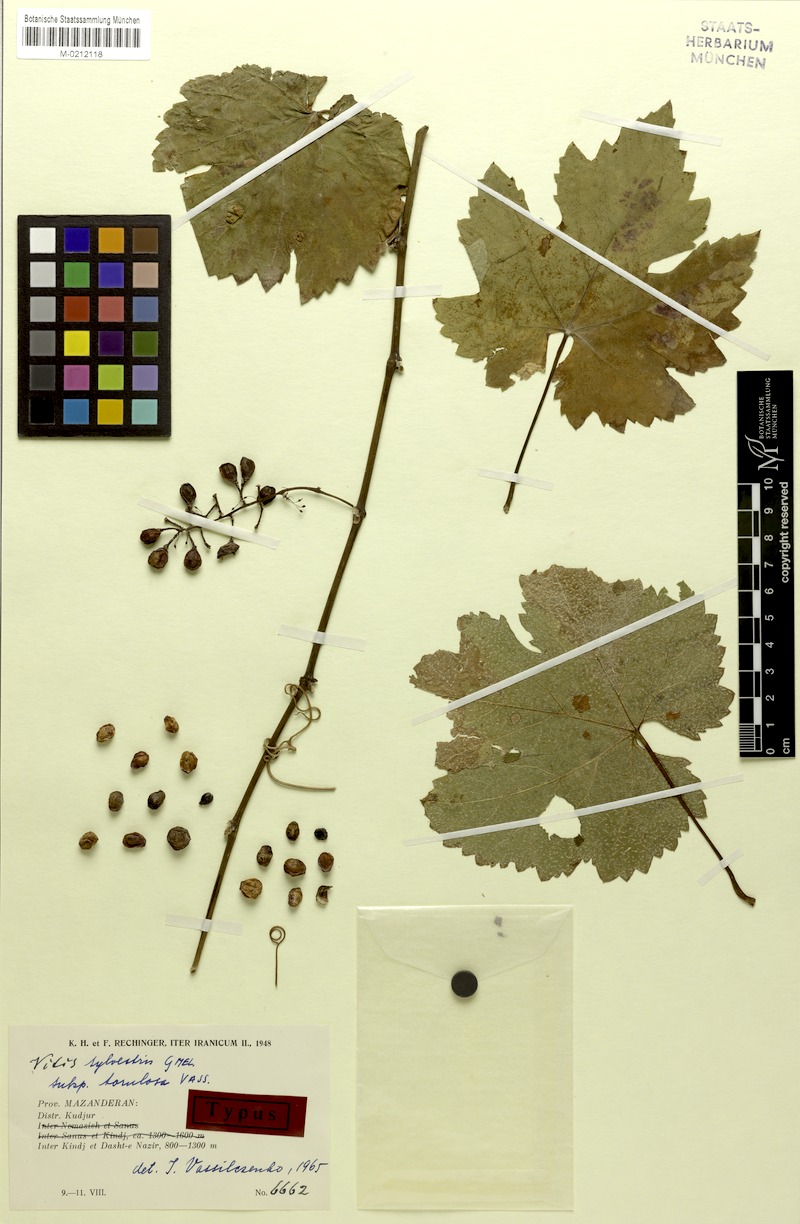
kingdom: Plantae
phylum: Tracheophyta
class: Magnoliopsida
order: Vitales
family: Vitaceae
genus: Vitis
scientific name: Vitis gmelinii
